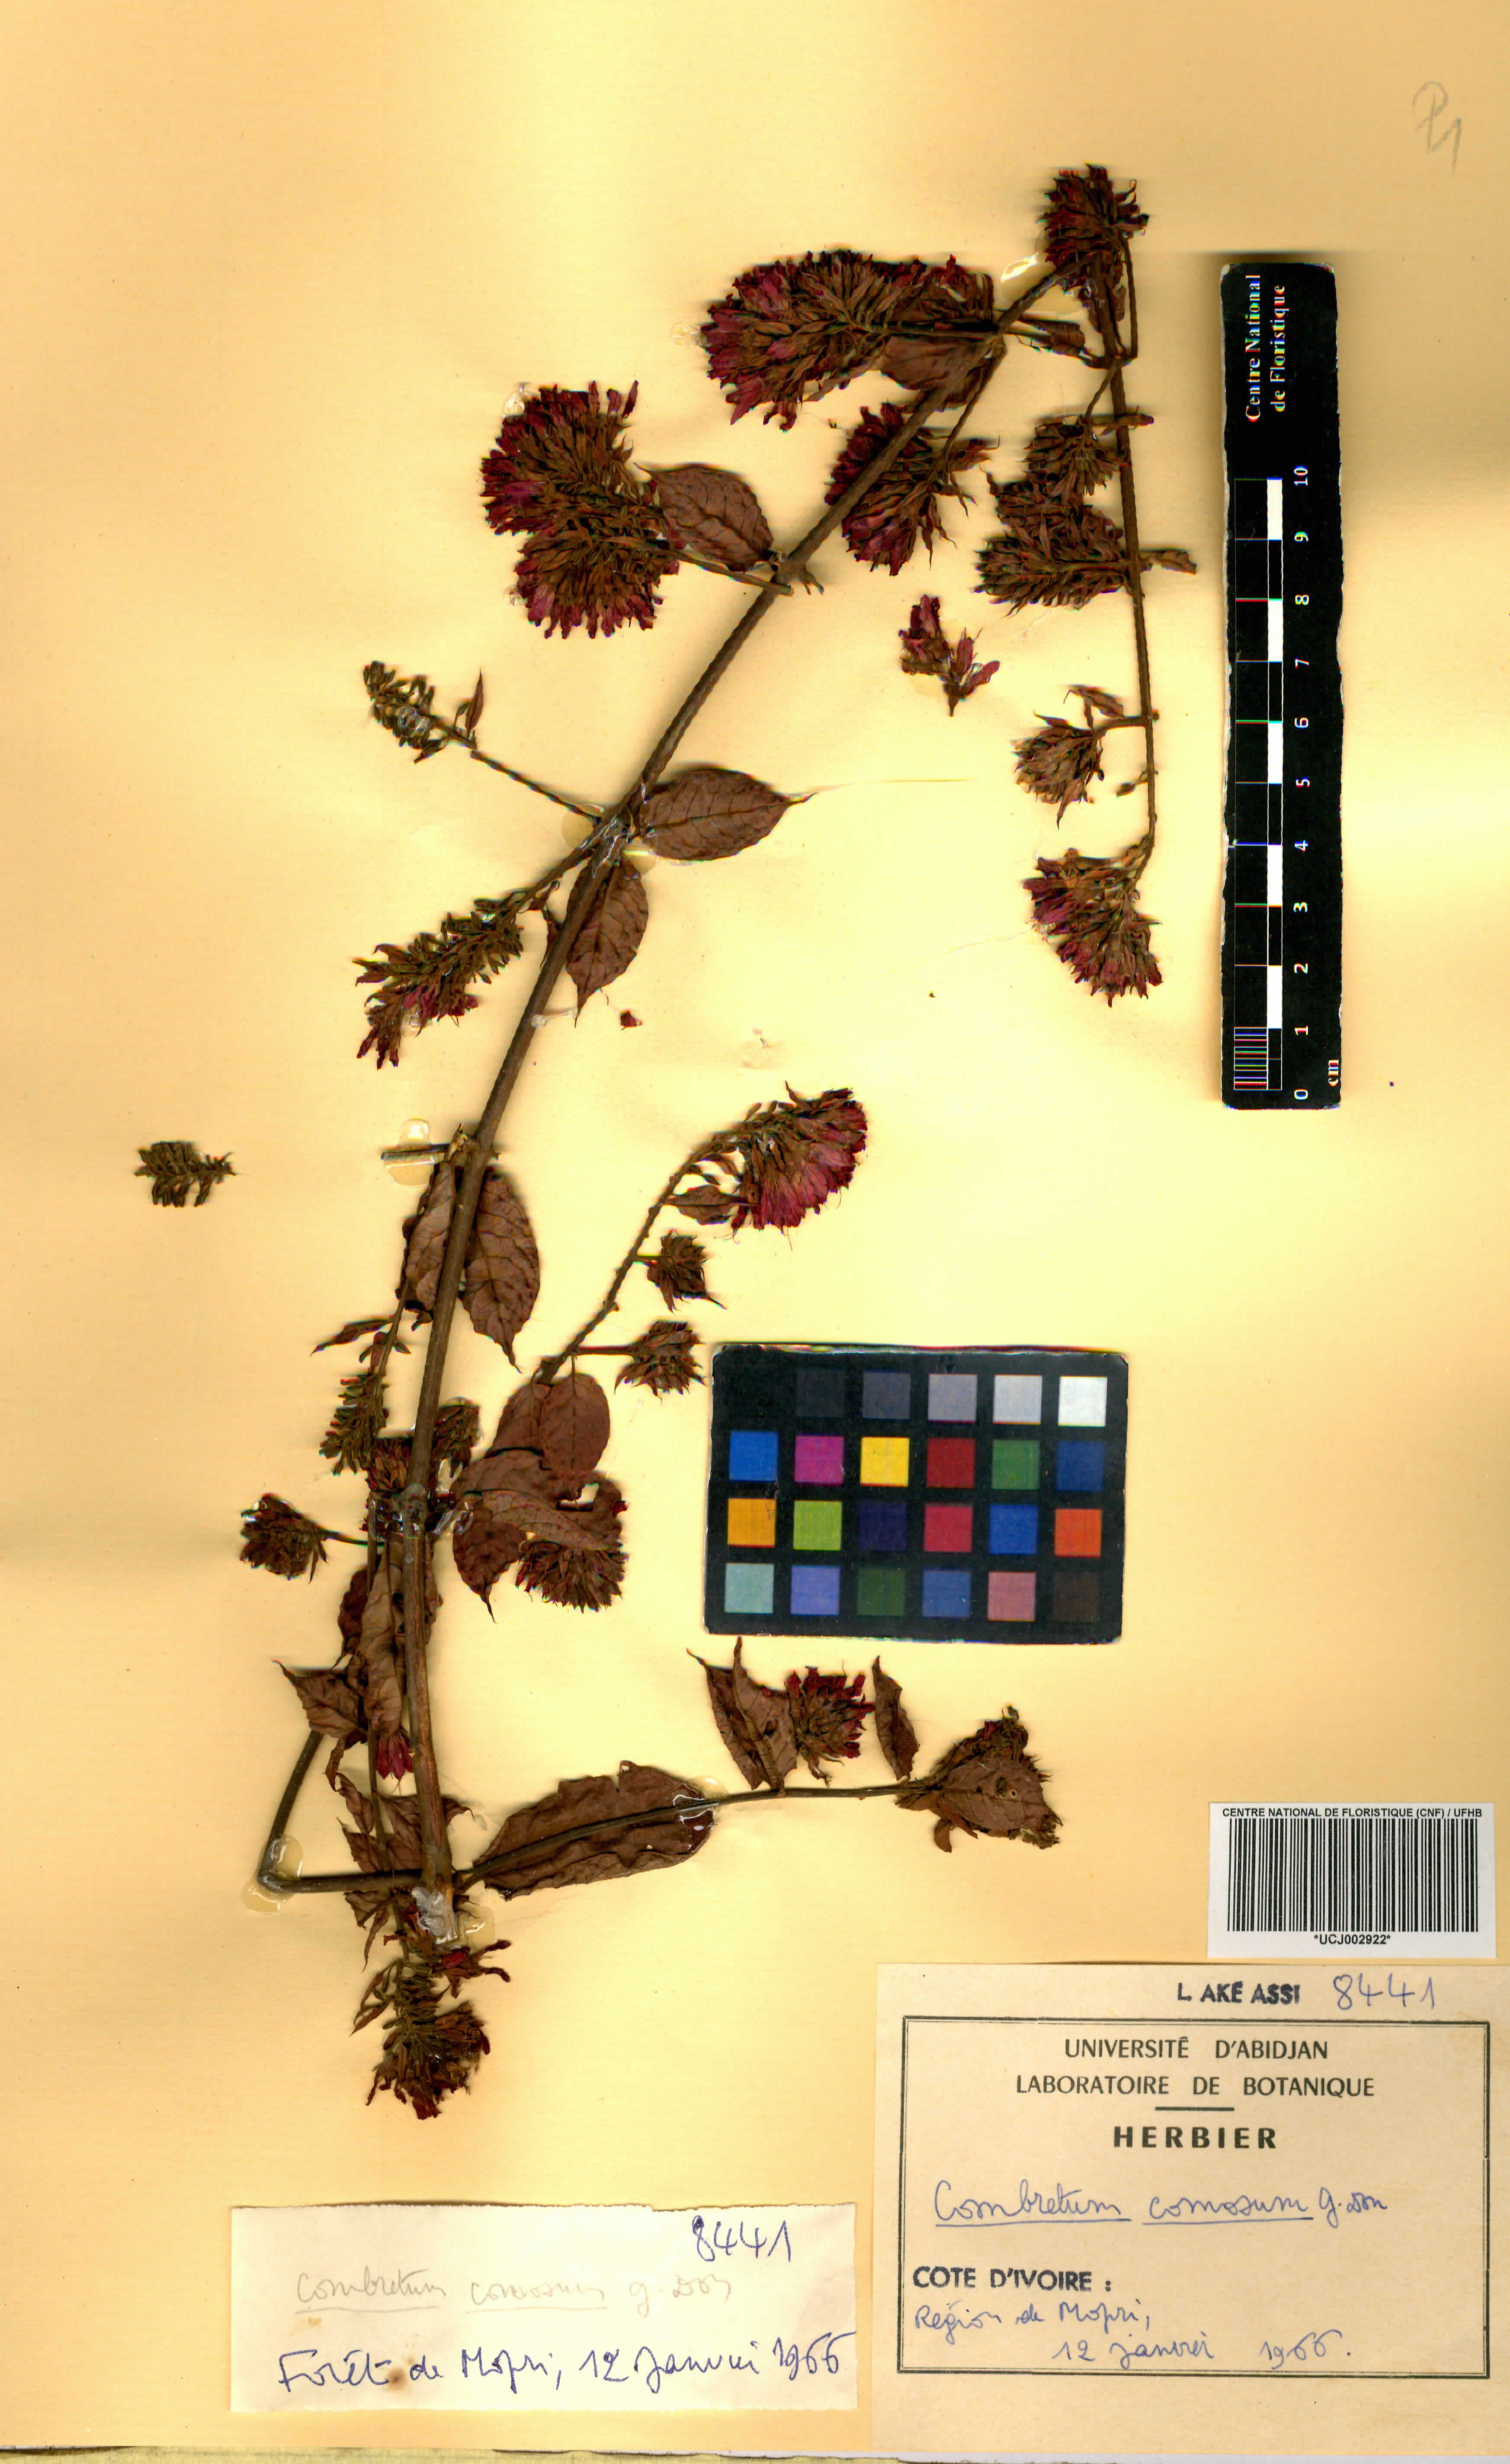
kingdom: Plantae
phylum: Tracheophyta
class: Magnoliopsida
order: Myrtales
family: Combretaceae
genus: Combretum
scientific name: Combretum comosum
